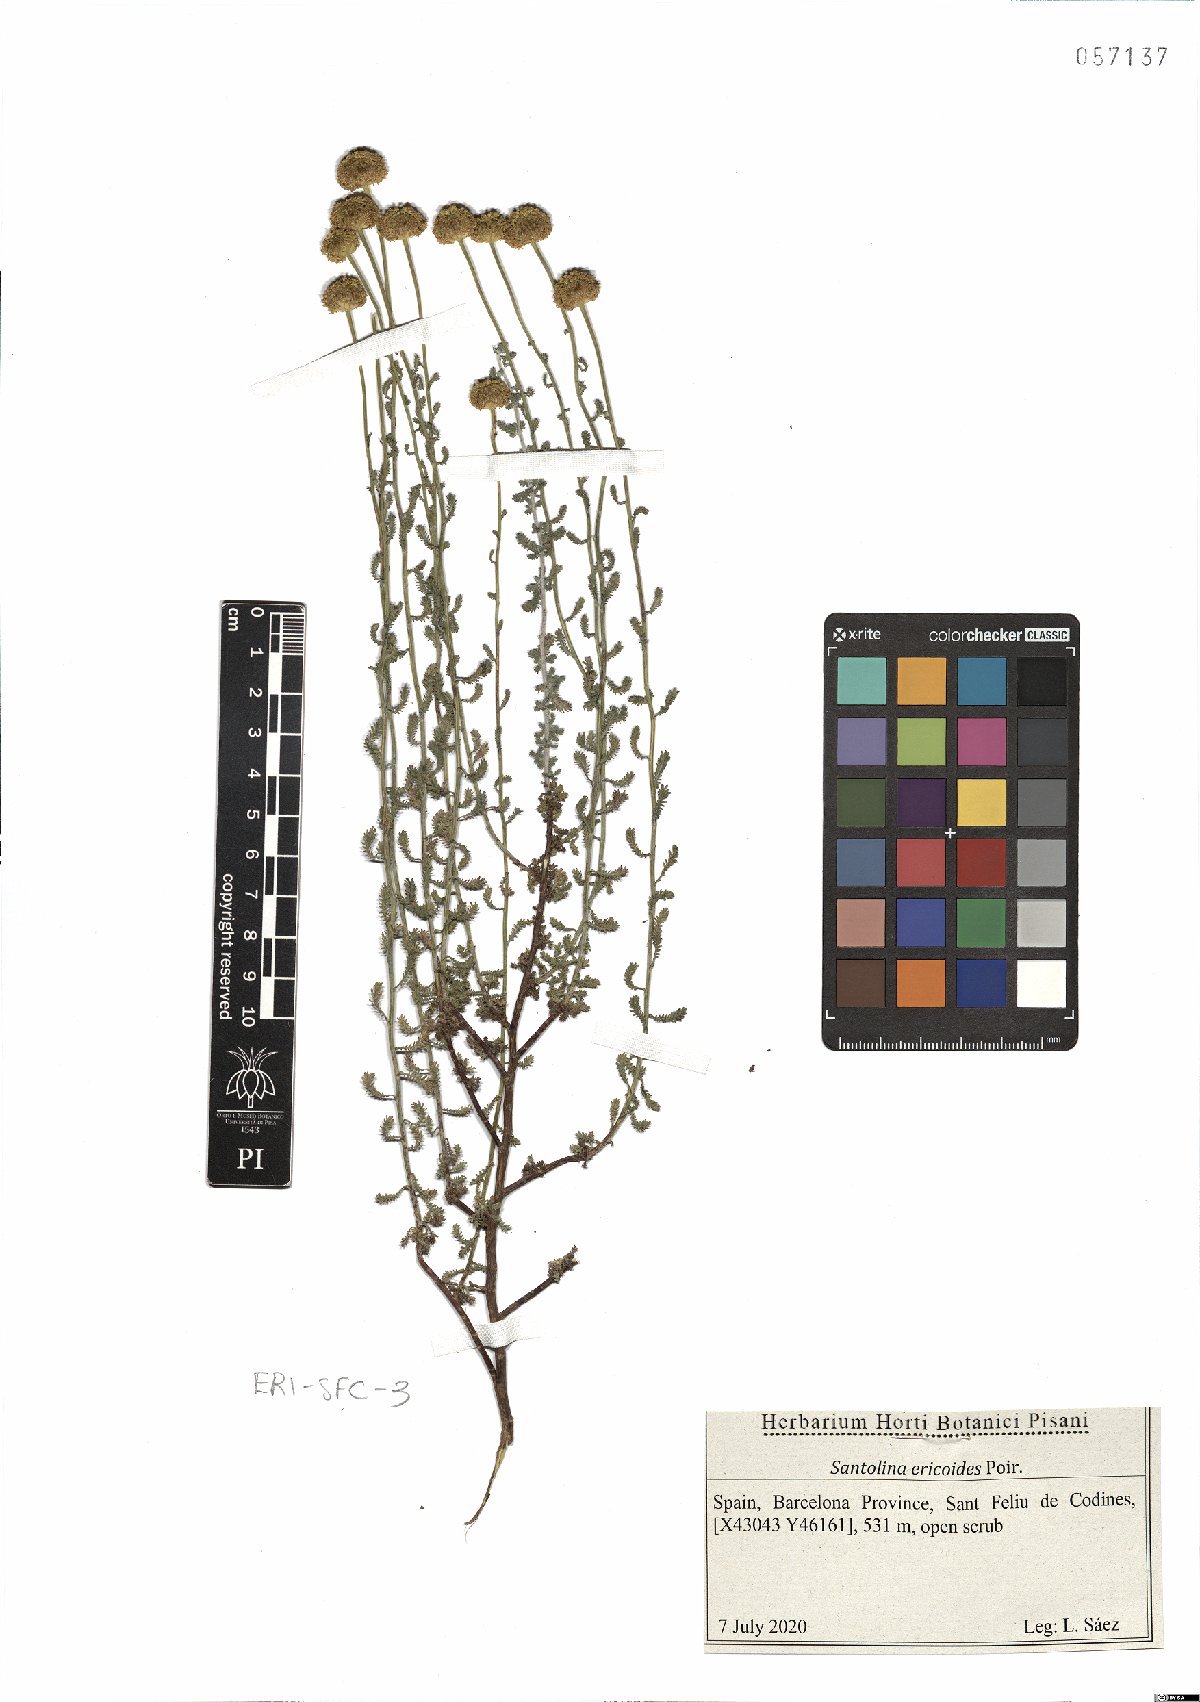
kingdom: Plantae
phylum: Tracheophyta
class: Magnoliopsida
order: Asterales
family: Asteraceae
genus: Santolina
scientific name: Santolina ericoides
